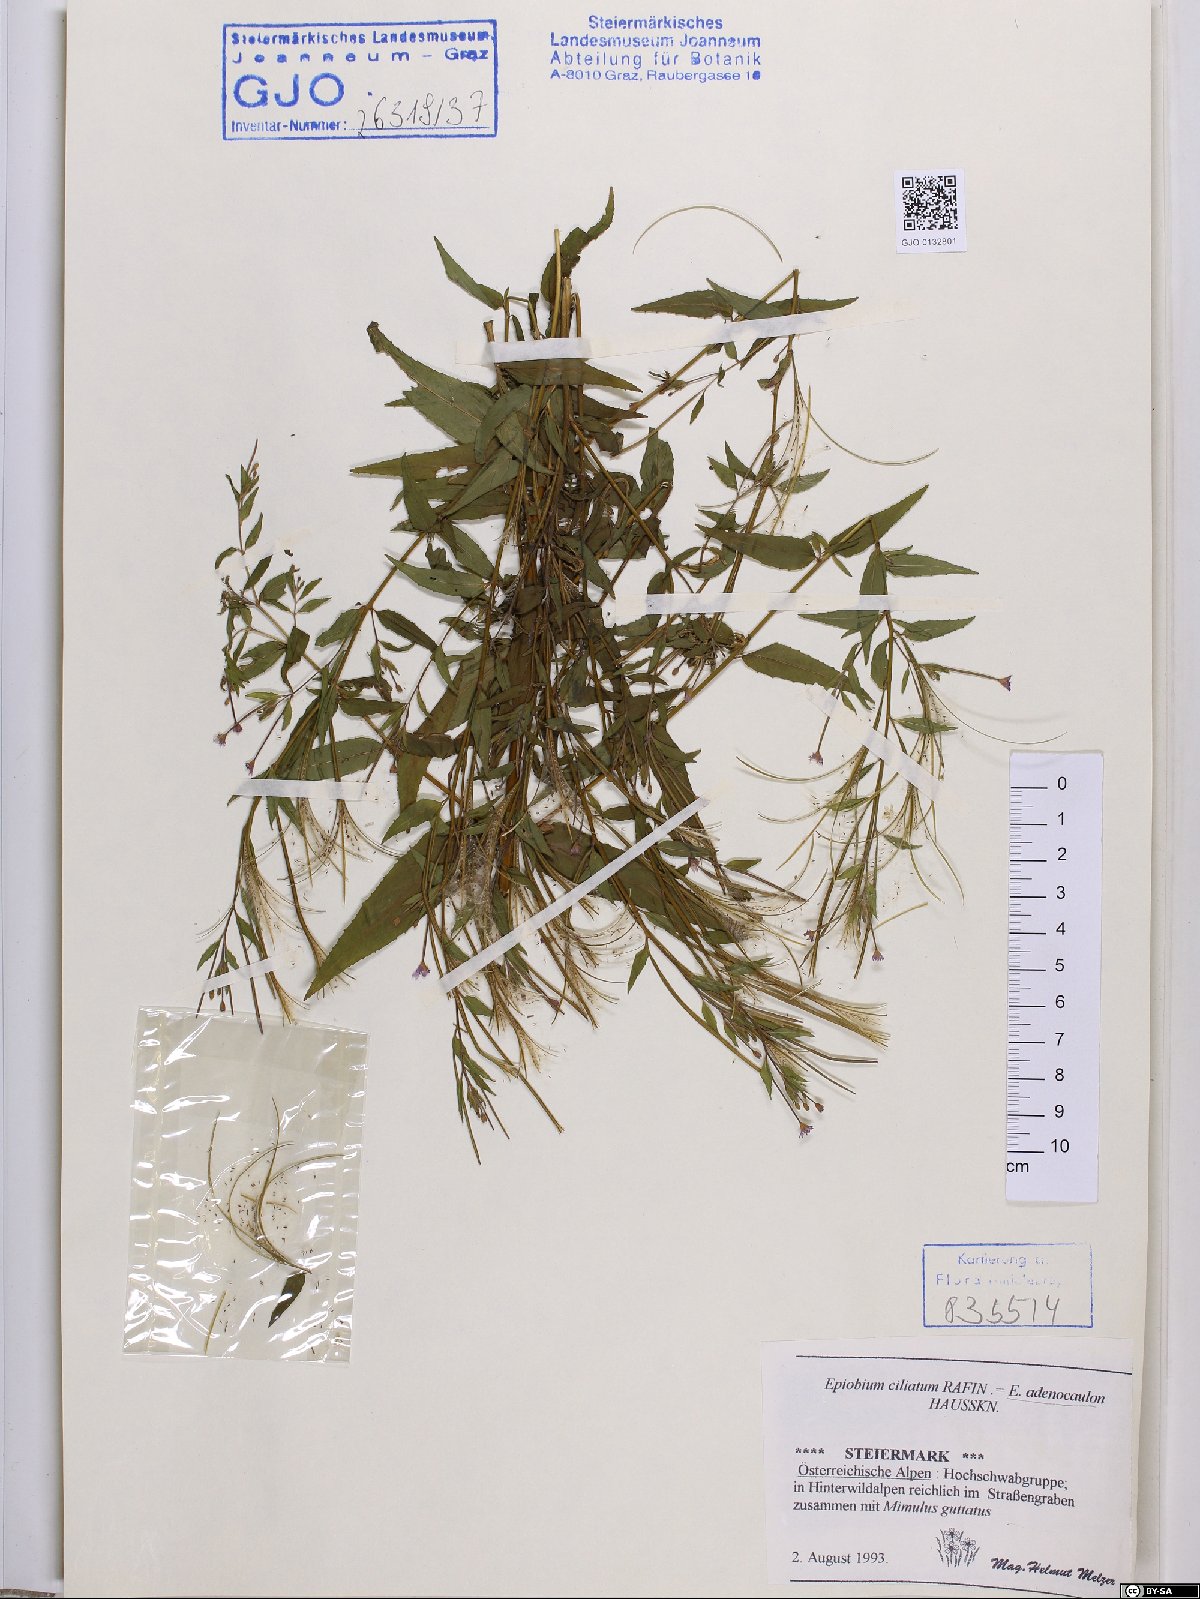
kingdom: Plantae
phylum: Tracheophyta
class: Magnoliopsida
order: Myrtales
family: Onagraceae
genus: Epilobium
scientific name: Epilobium ciliatum
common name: American willowherb
